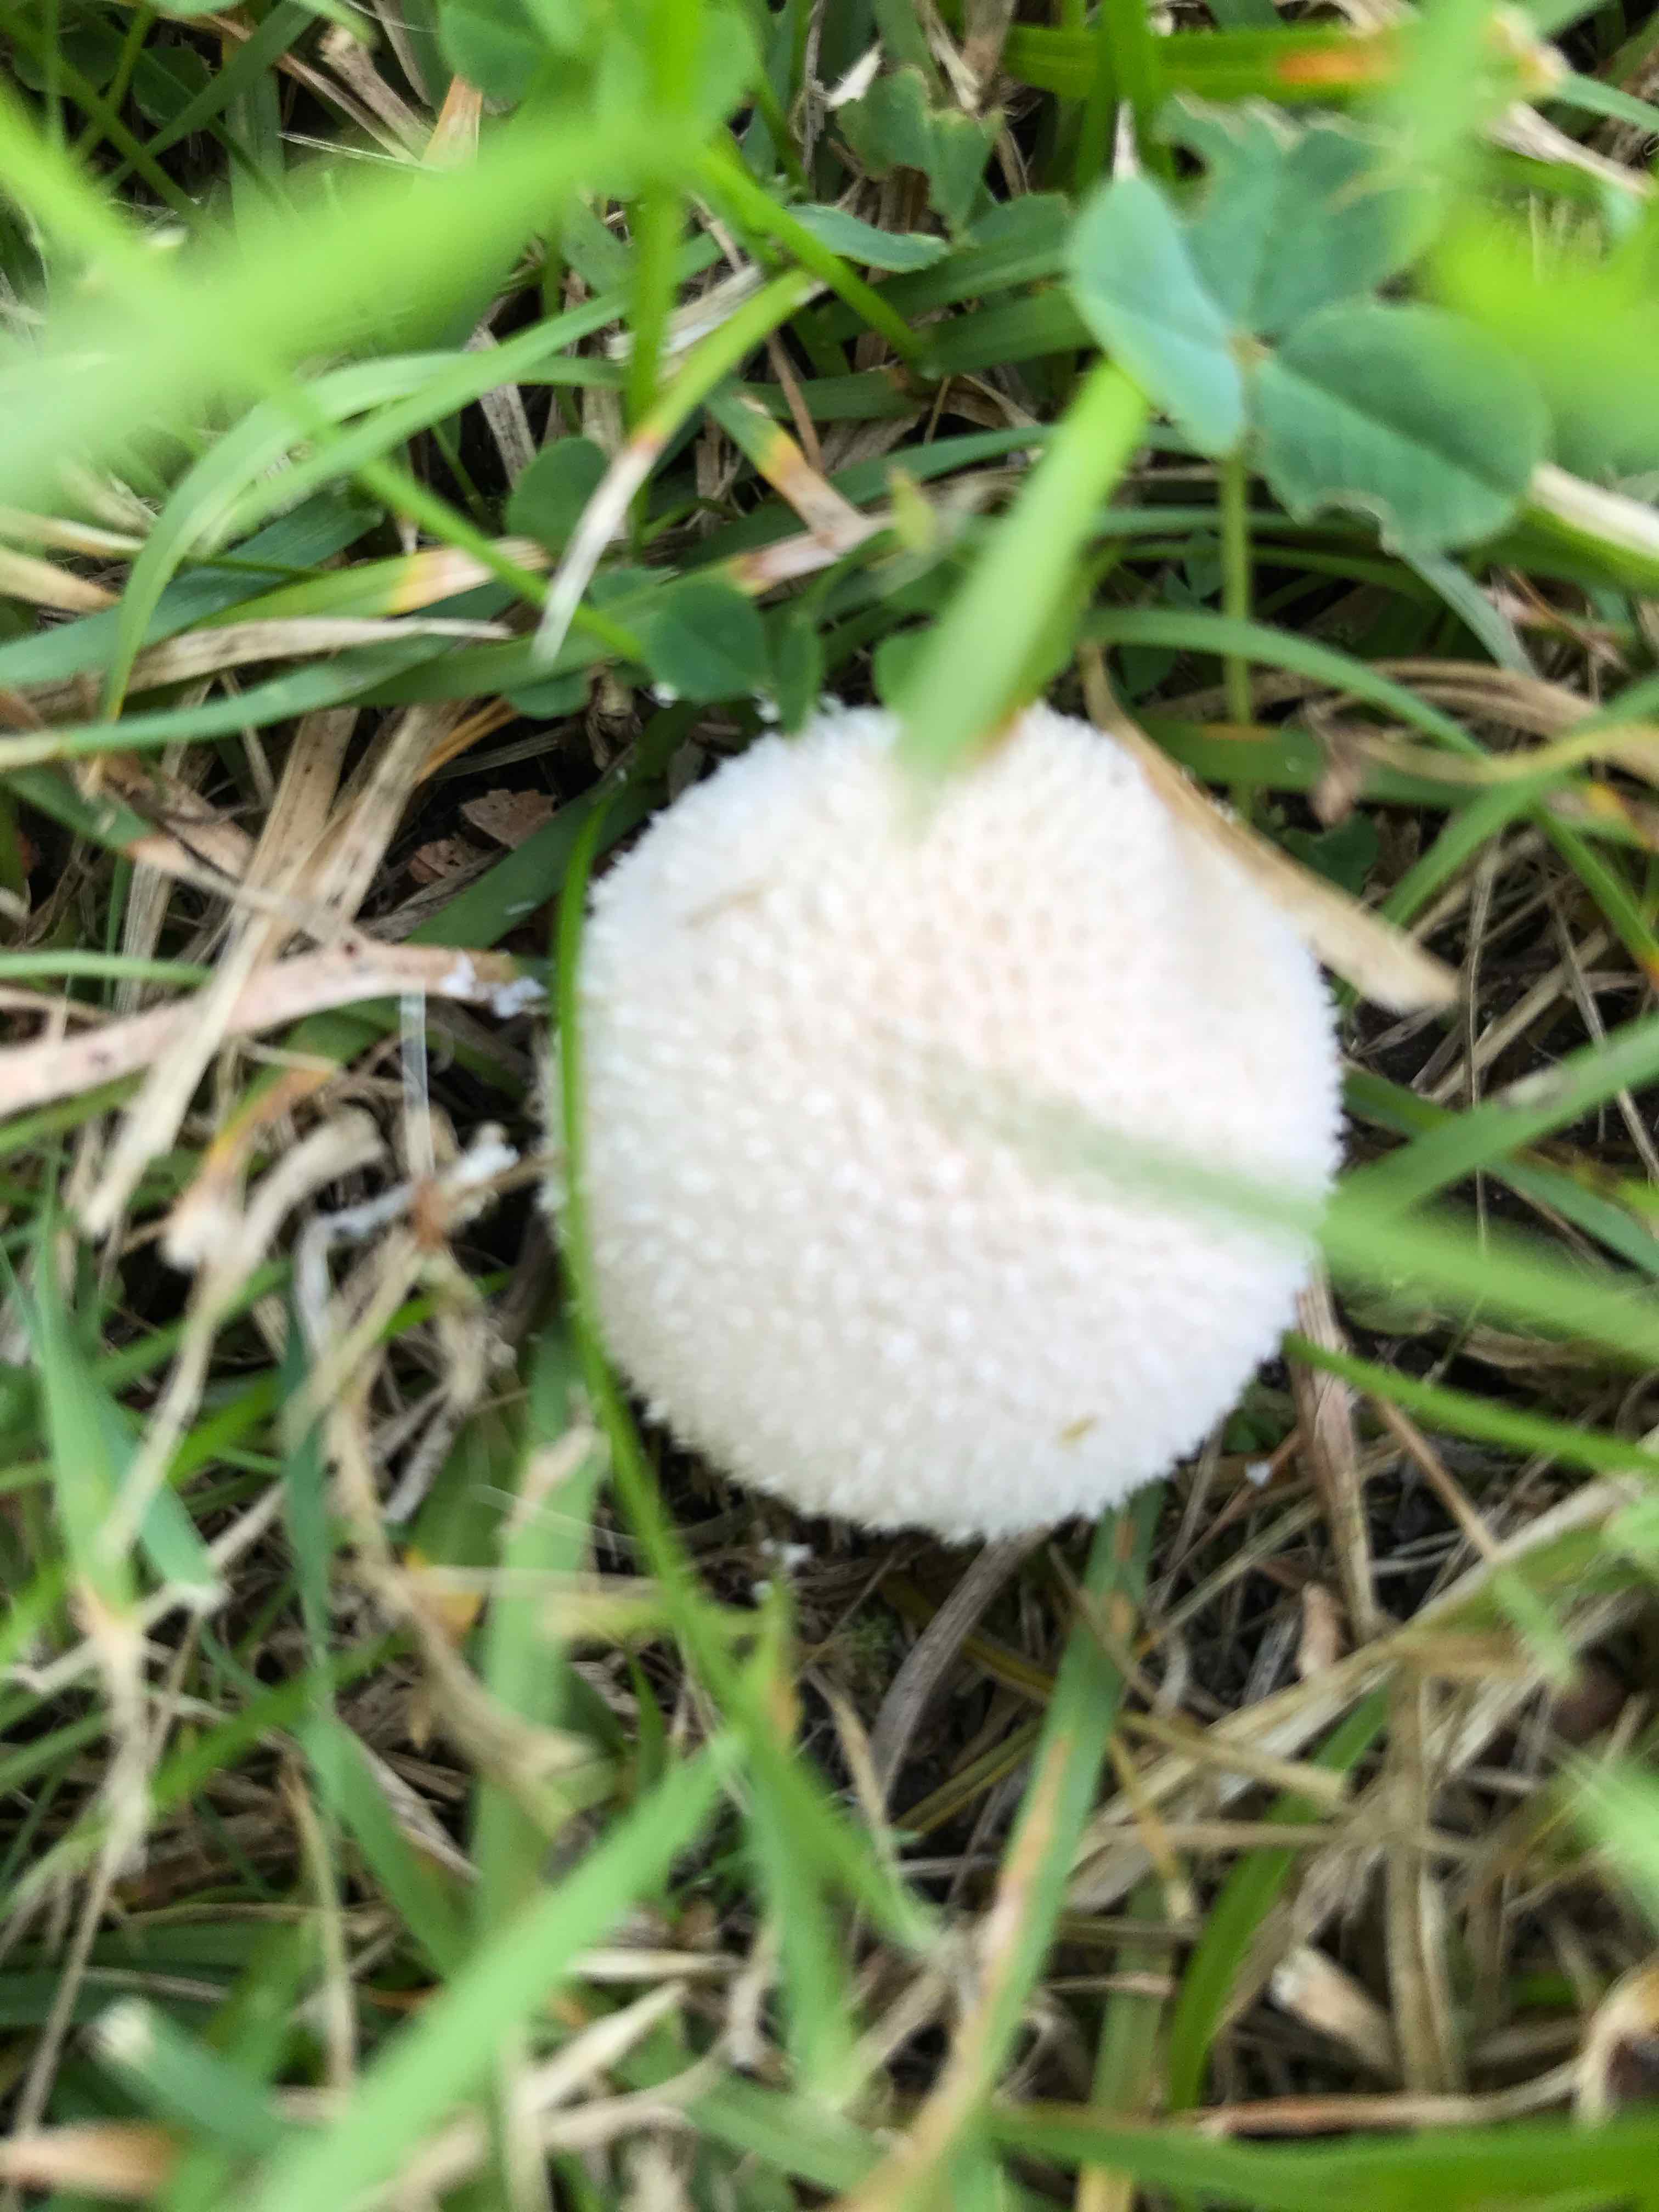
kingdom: Fungi
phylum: Basidiomycota
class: Agaricomycetes
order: Agaricales
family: Lycoperdaceae
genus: Lycoperdon
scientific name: Lycoperdon pratense
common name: flad støvbold
